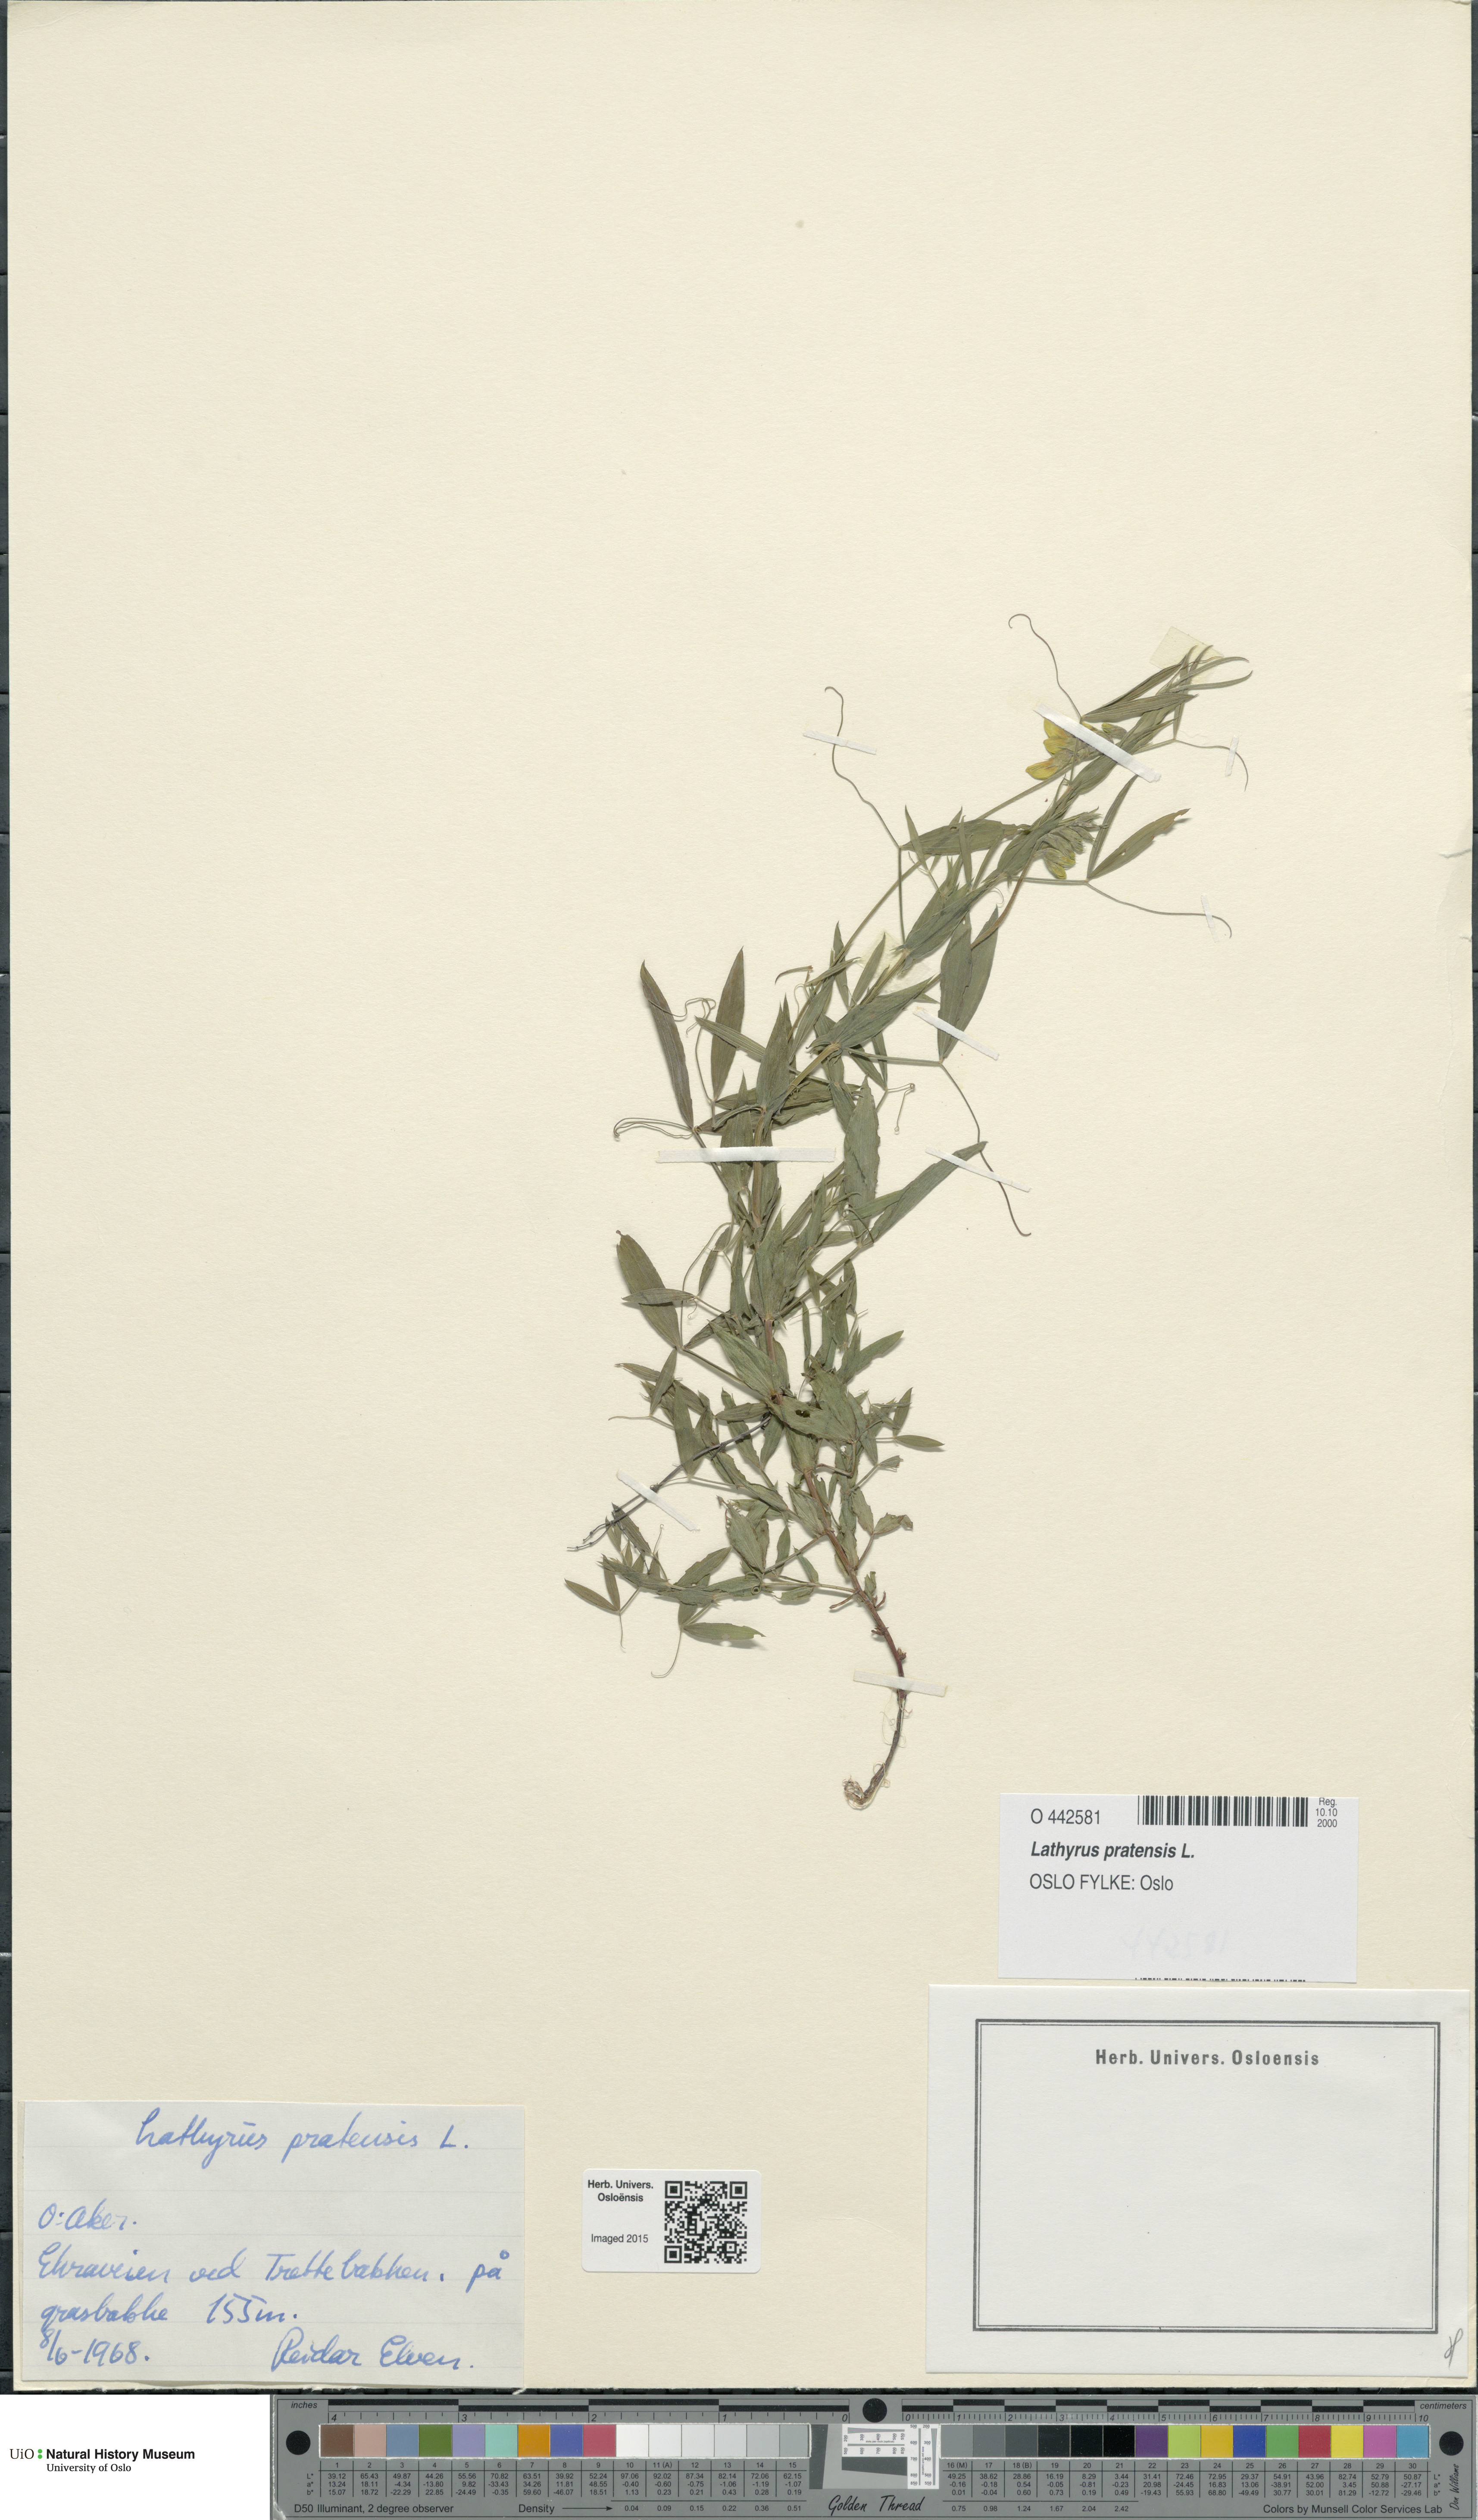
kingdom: Plantae
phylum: Tracheophyta
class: Magnoliopsida
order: Fabales
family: Fabaceae
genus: Lathyrus
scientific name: Lathyrus pratensis
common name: Meadow vetchling
